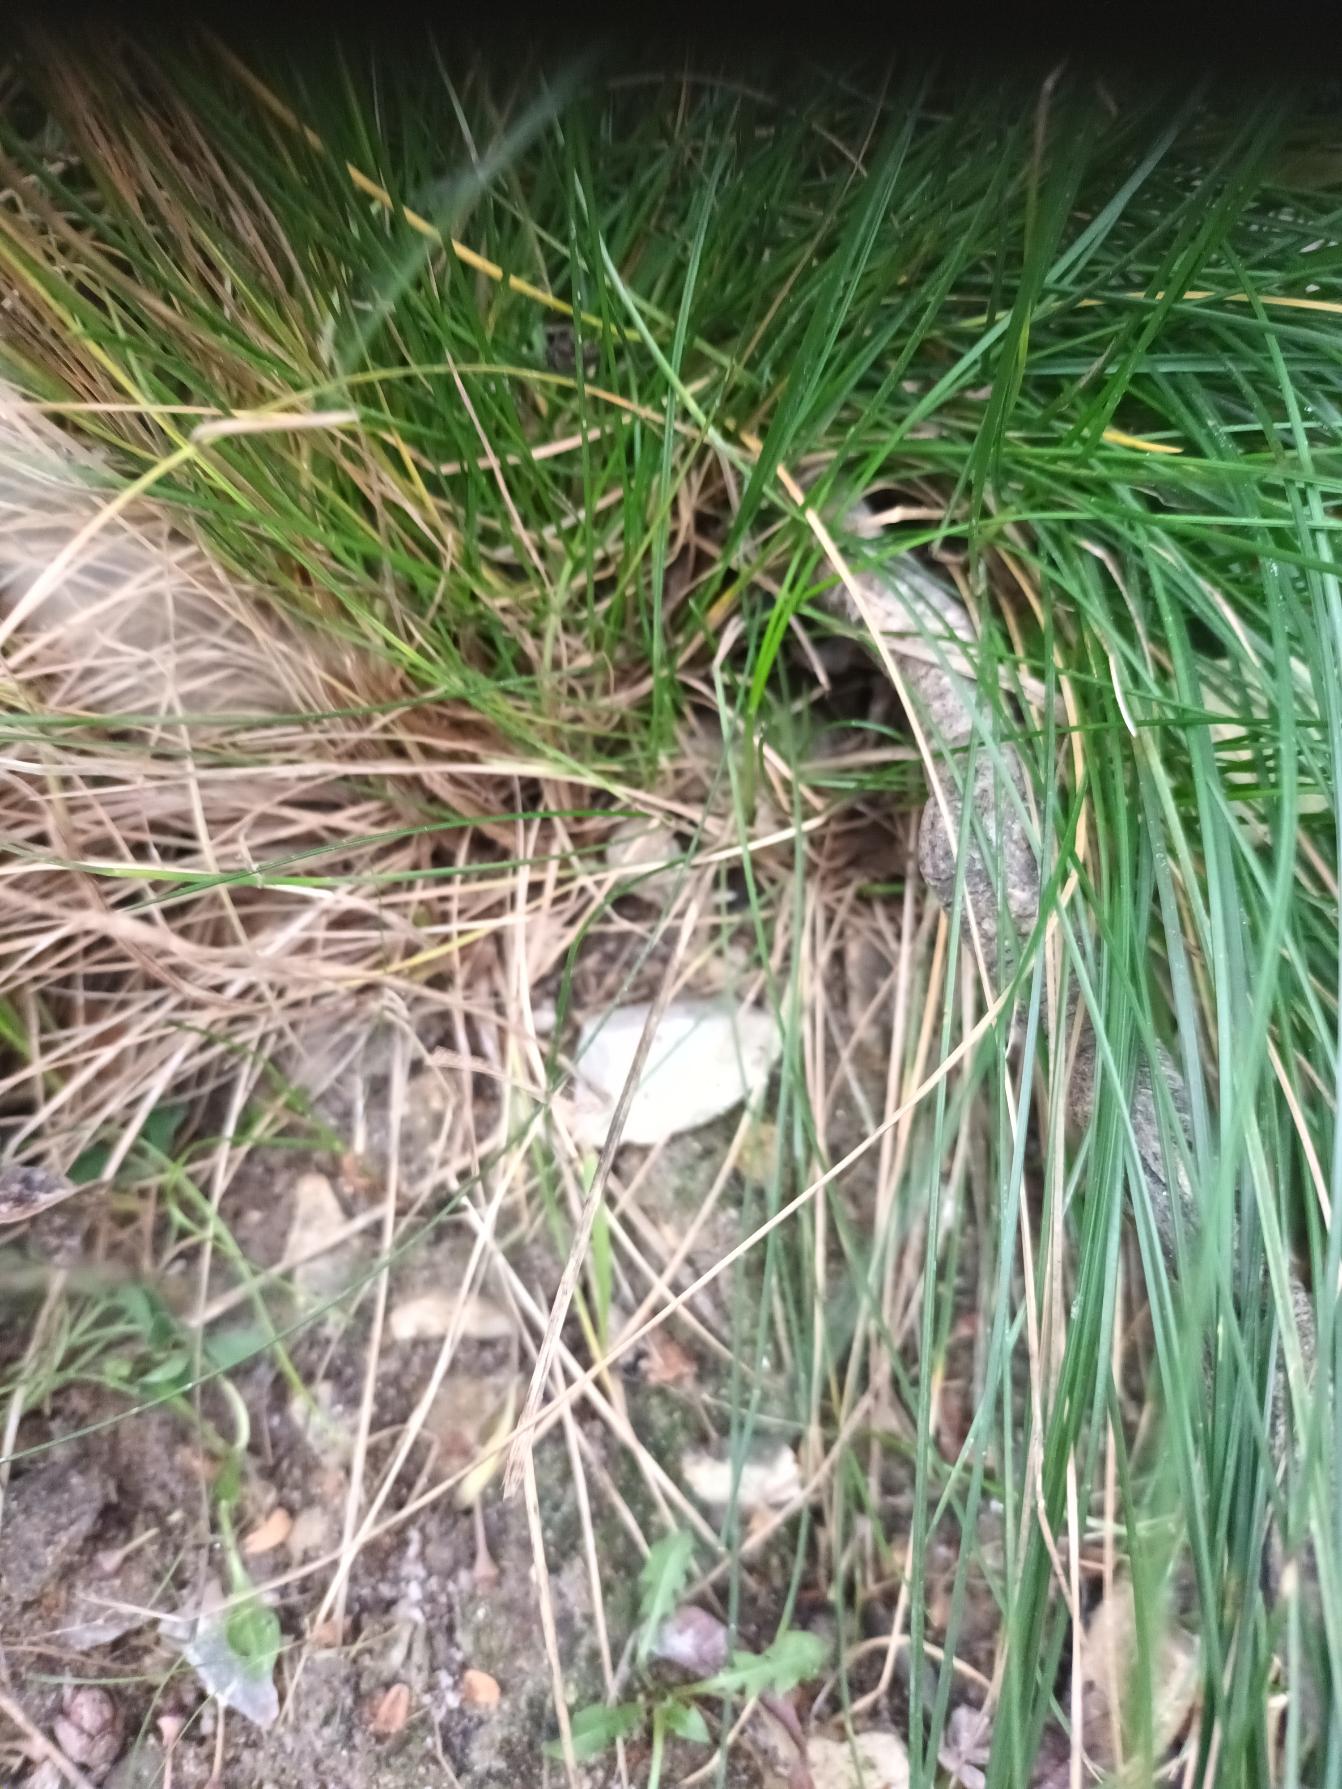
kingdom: Plantae
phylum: Tracheophyta
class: Liliopsida
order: Poales
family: Poaceae
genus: Festuca
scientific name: Festuca nigrescens
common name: Vej-svingel
